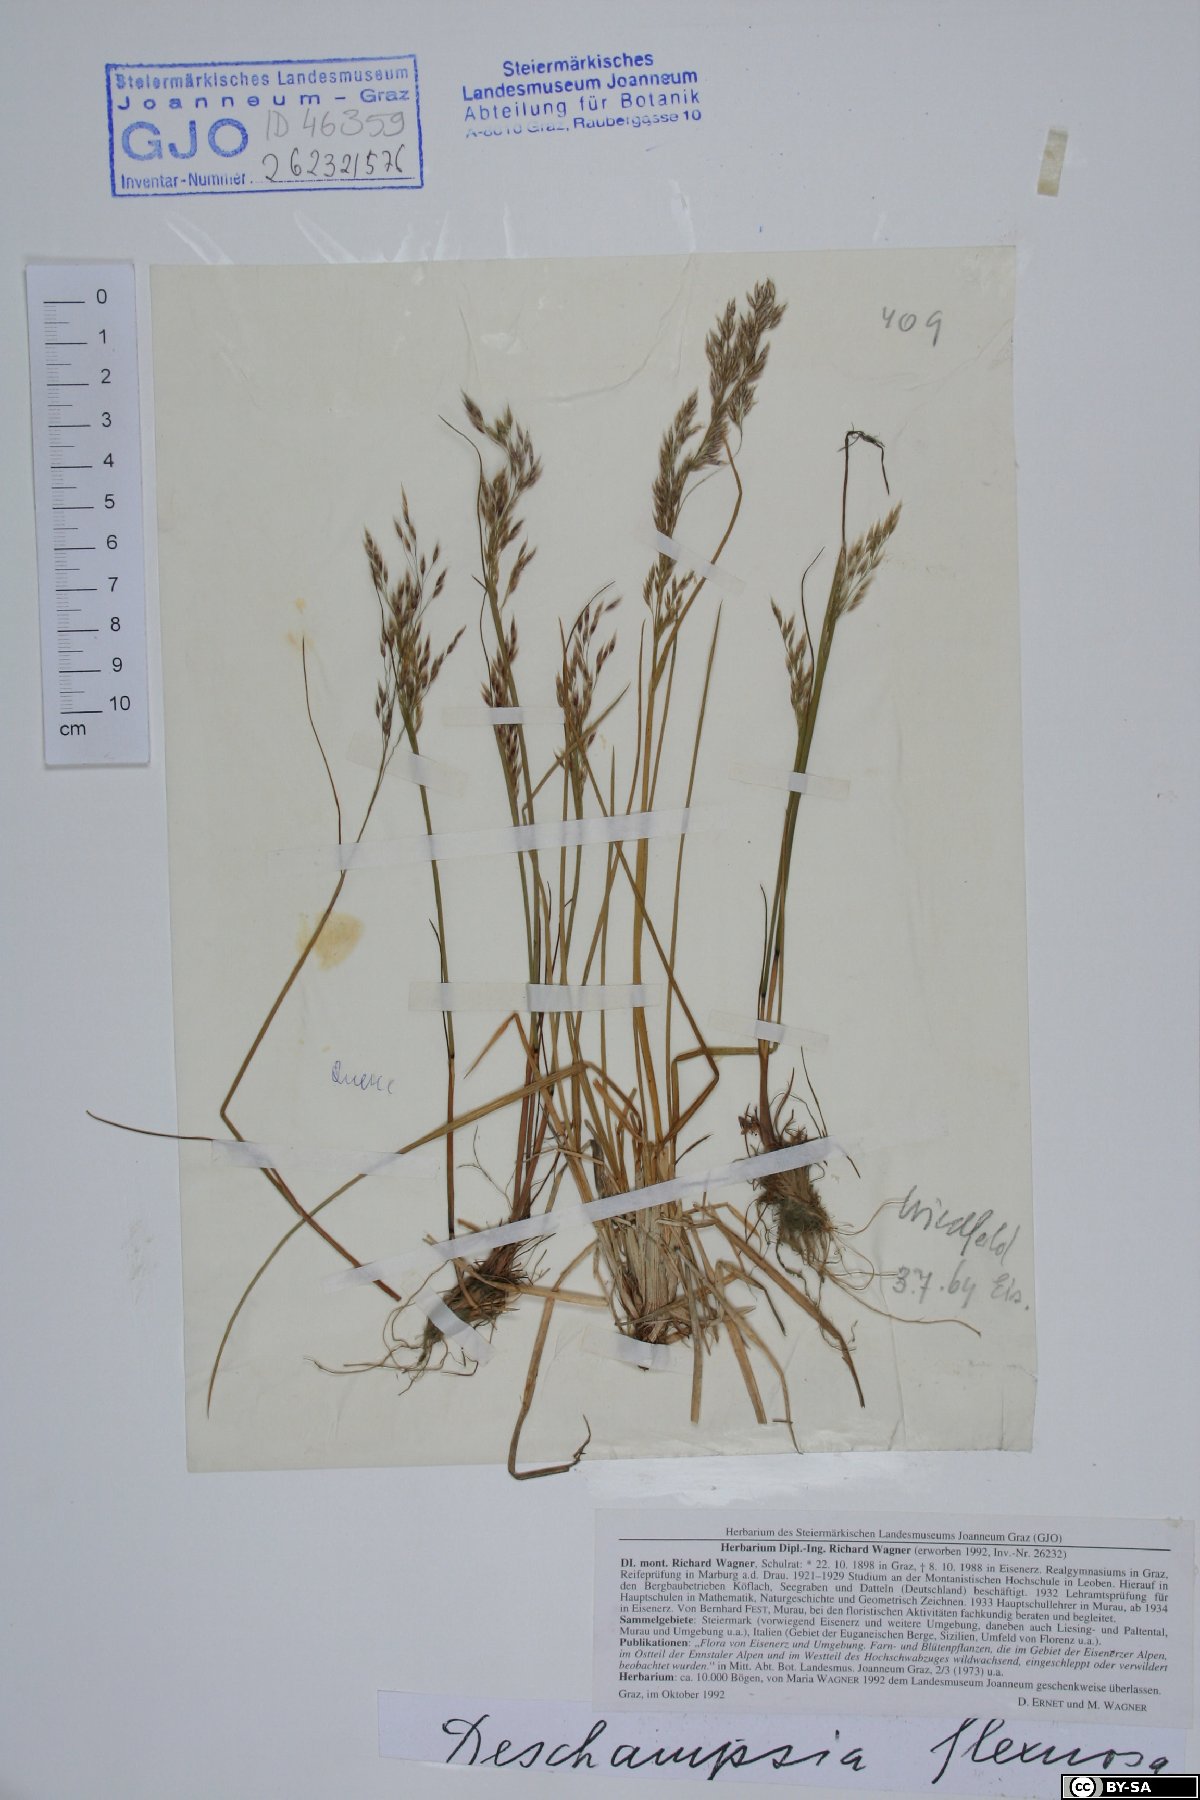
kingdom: Plantae
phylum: Tracheophyta
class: Liliopsida
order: Poales
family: Poaceae
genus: Avenella
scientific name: Avenella flexuosa
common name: Wavy hairgrass
